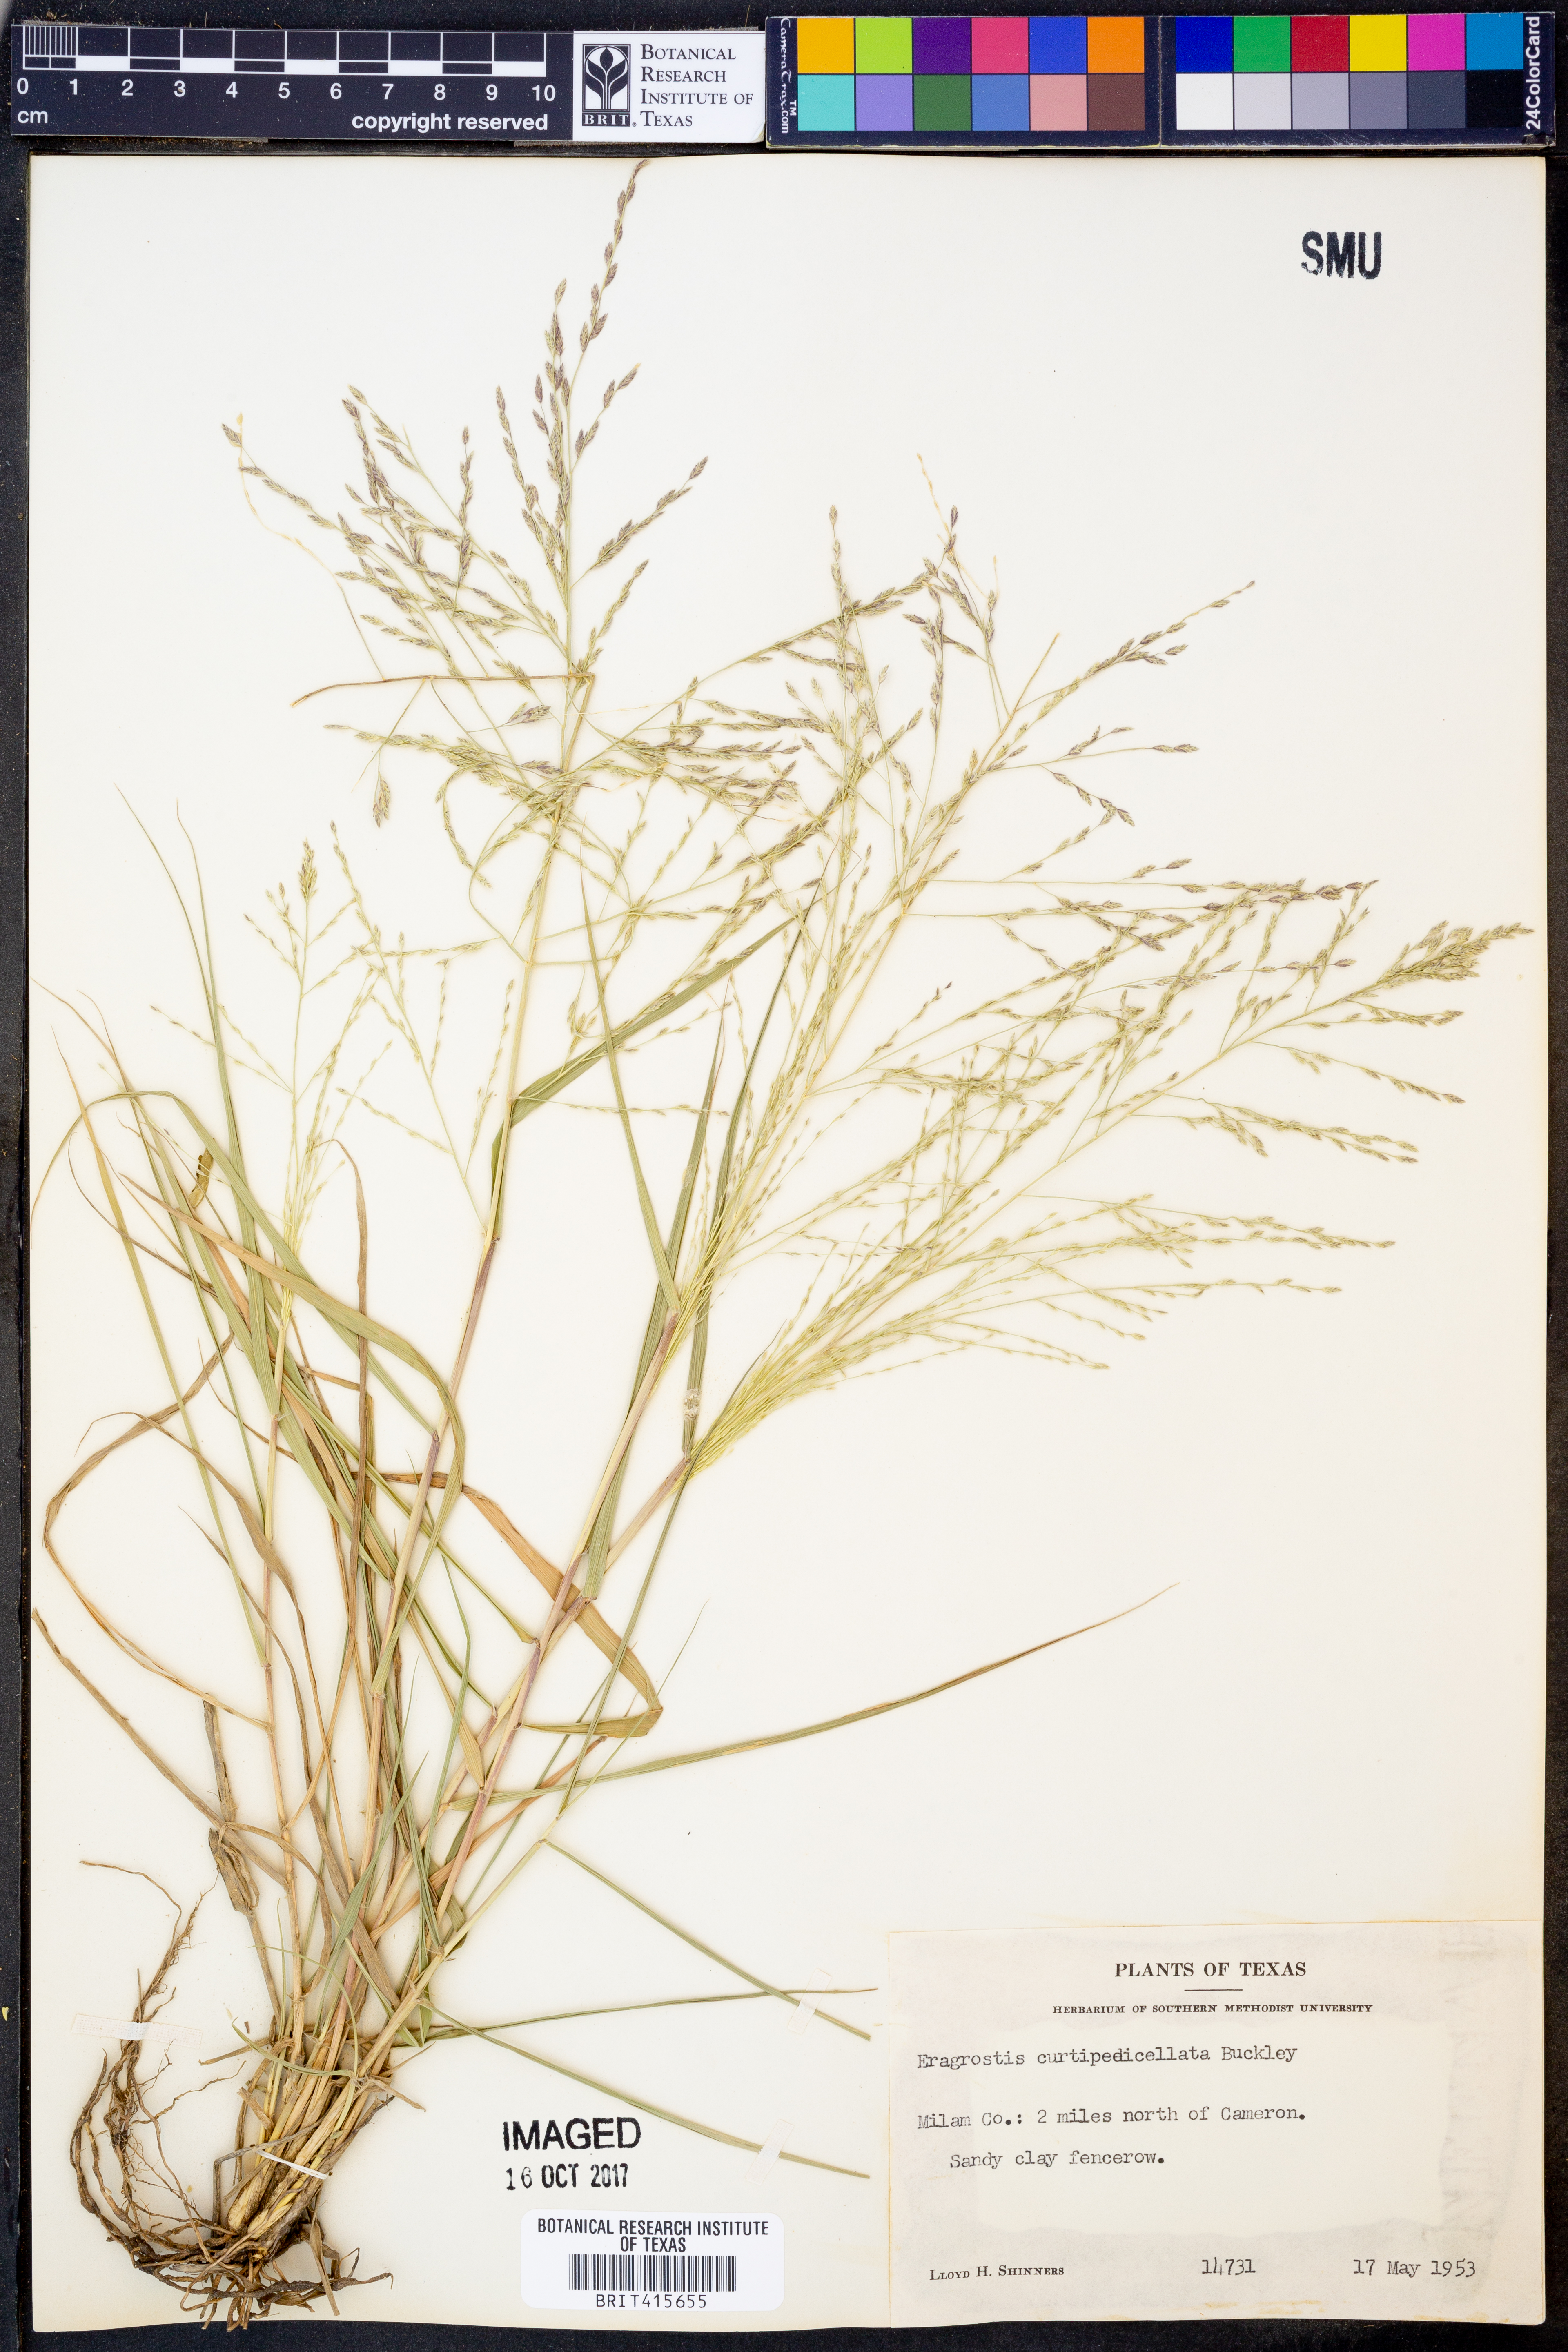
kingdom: Plantae
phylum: Tracheophyta
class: Liliopsida
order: Poales
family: Poaceae
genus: Eragrostis
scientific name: Eragrostis curtipedicellata
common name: Gummy love grass
